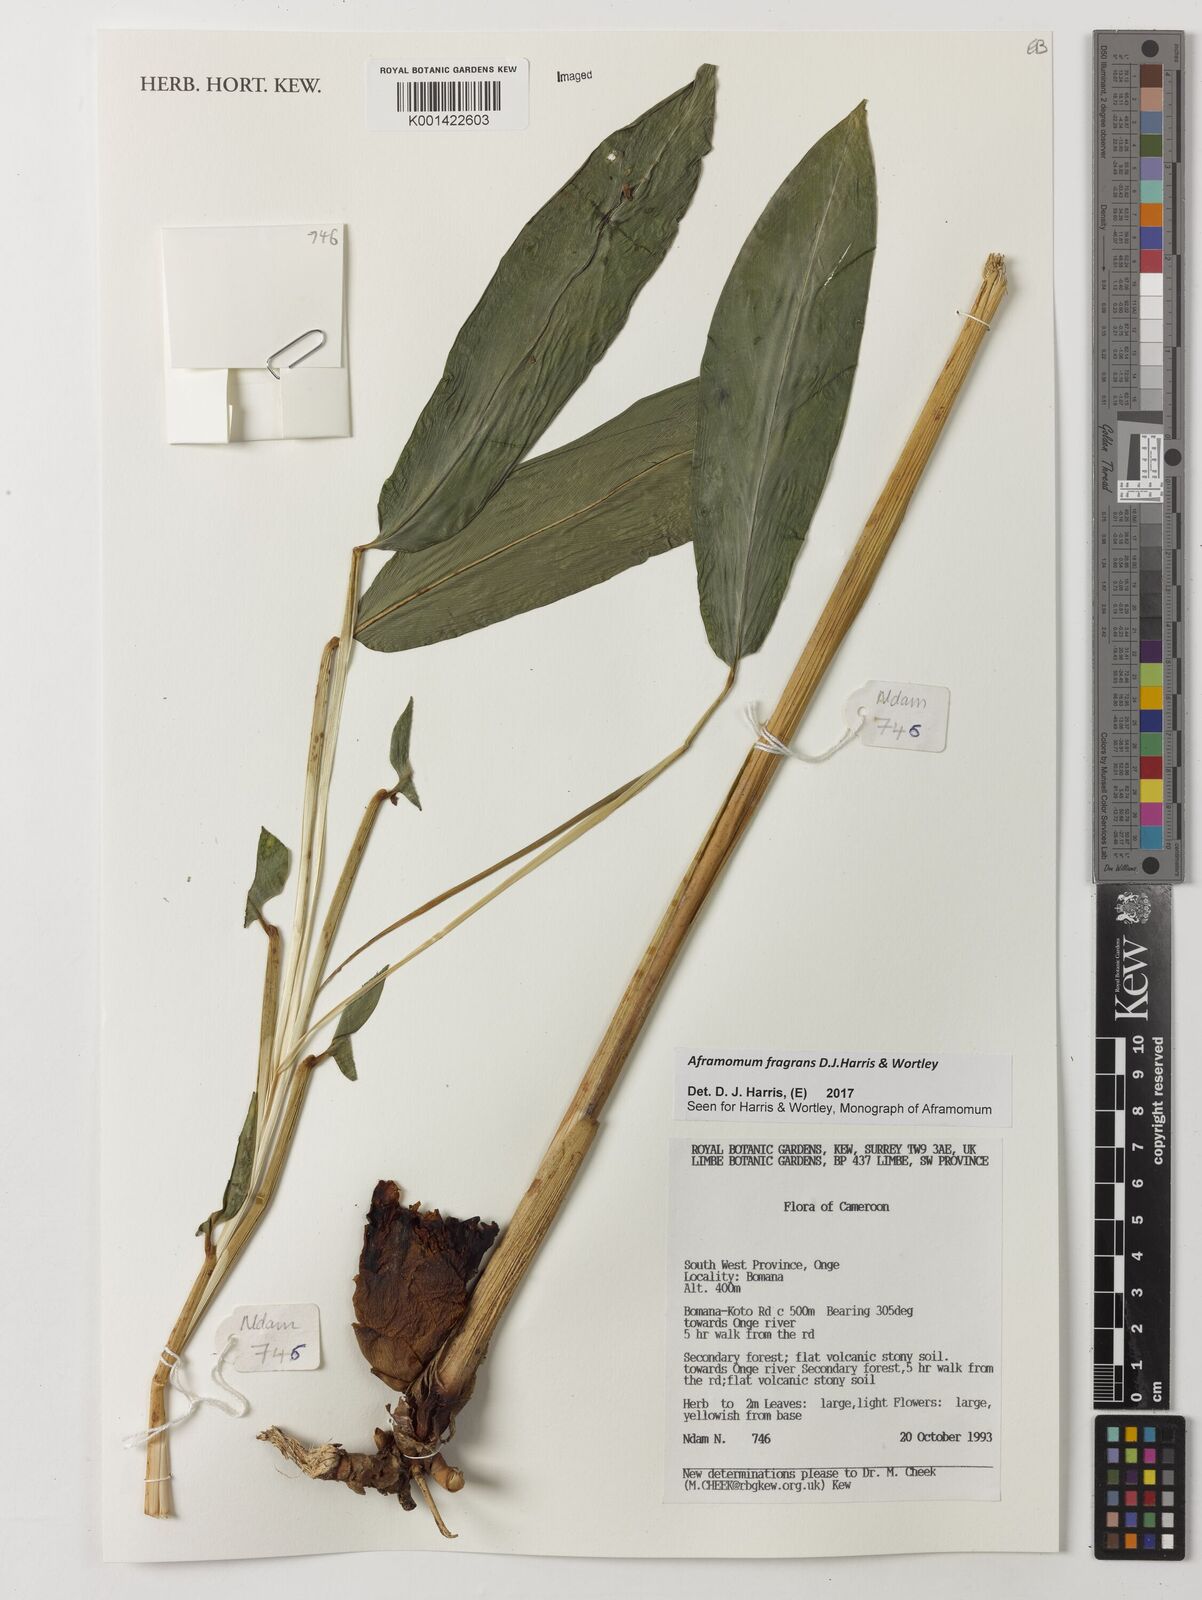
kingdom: Plantae
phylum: Tracheophyta
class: Liliopsida
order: Zingiberales
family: Zingiberaceae
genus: Aframomum
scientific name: Aframomum fragrans
